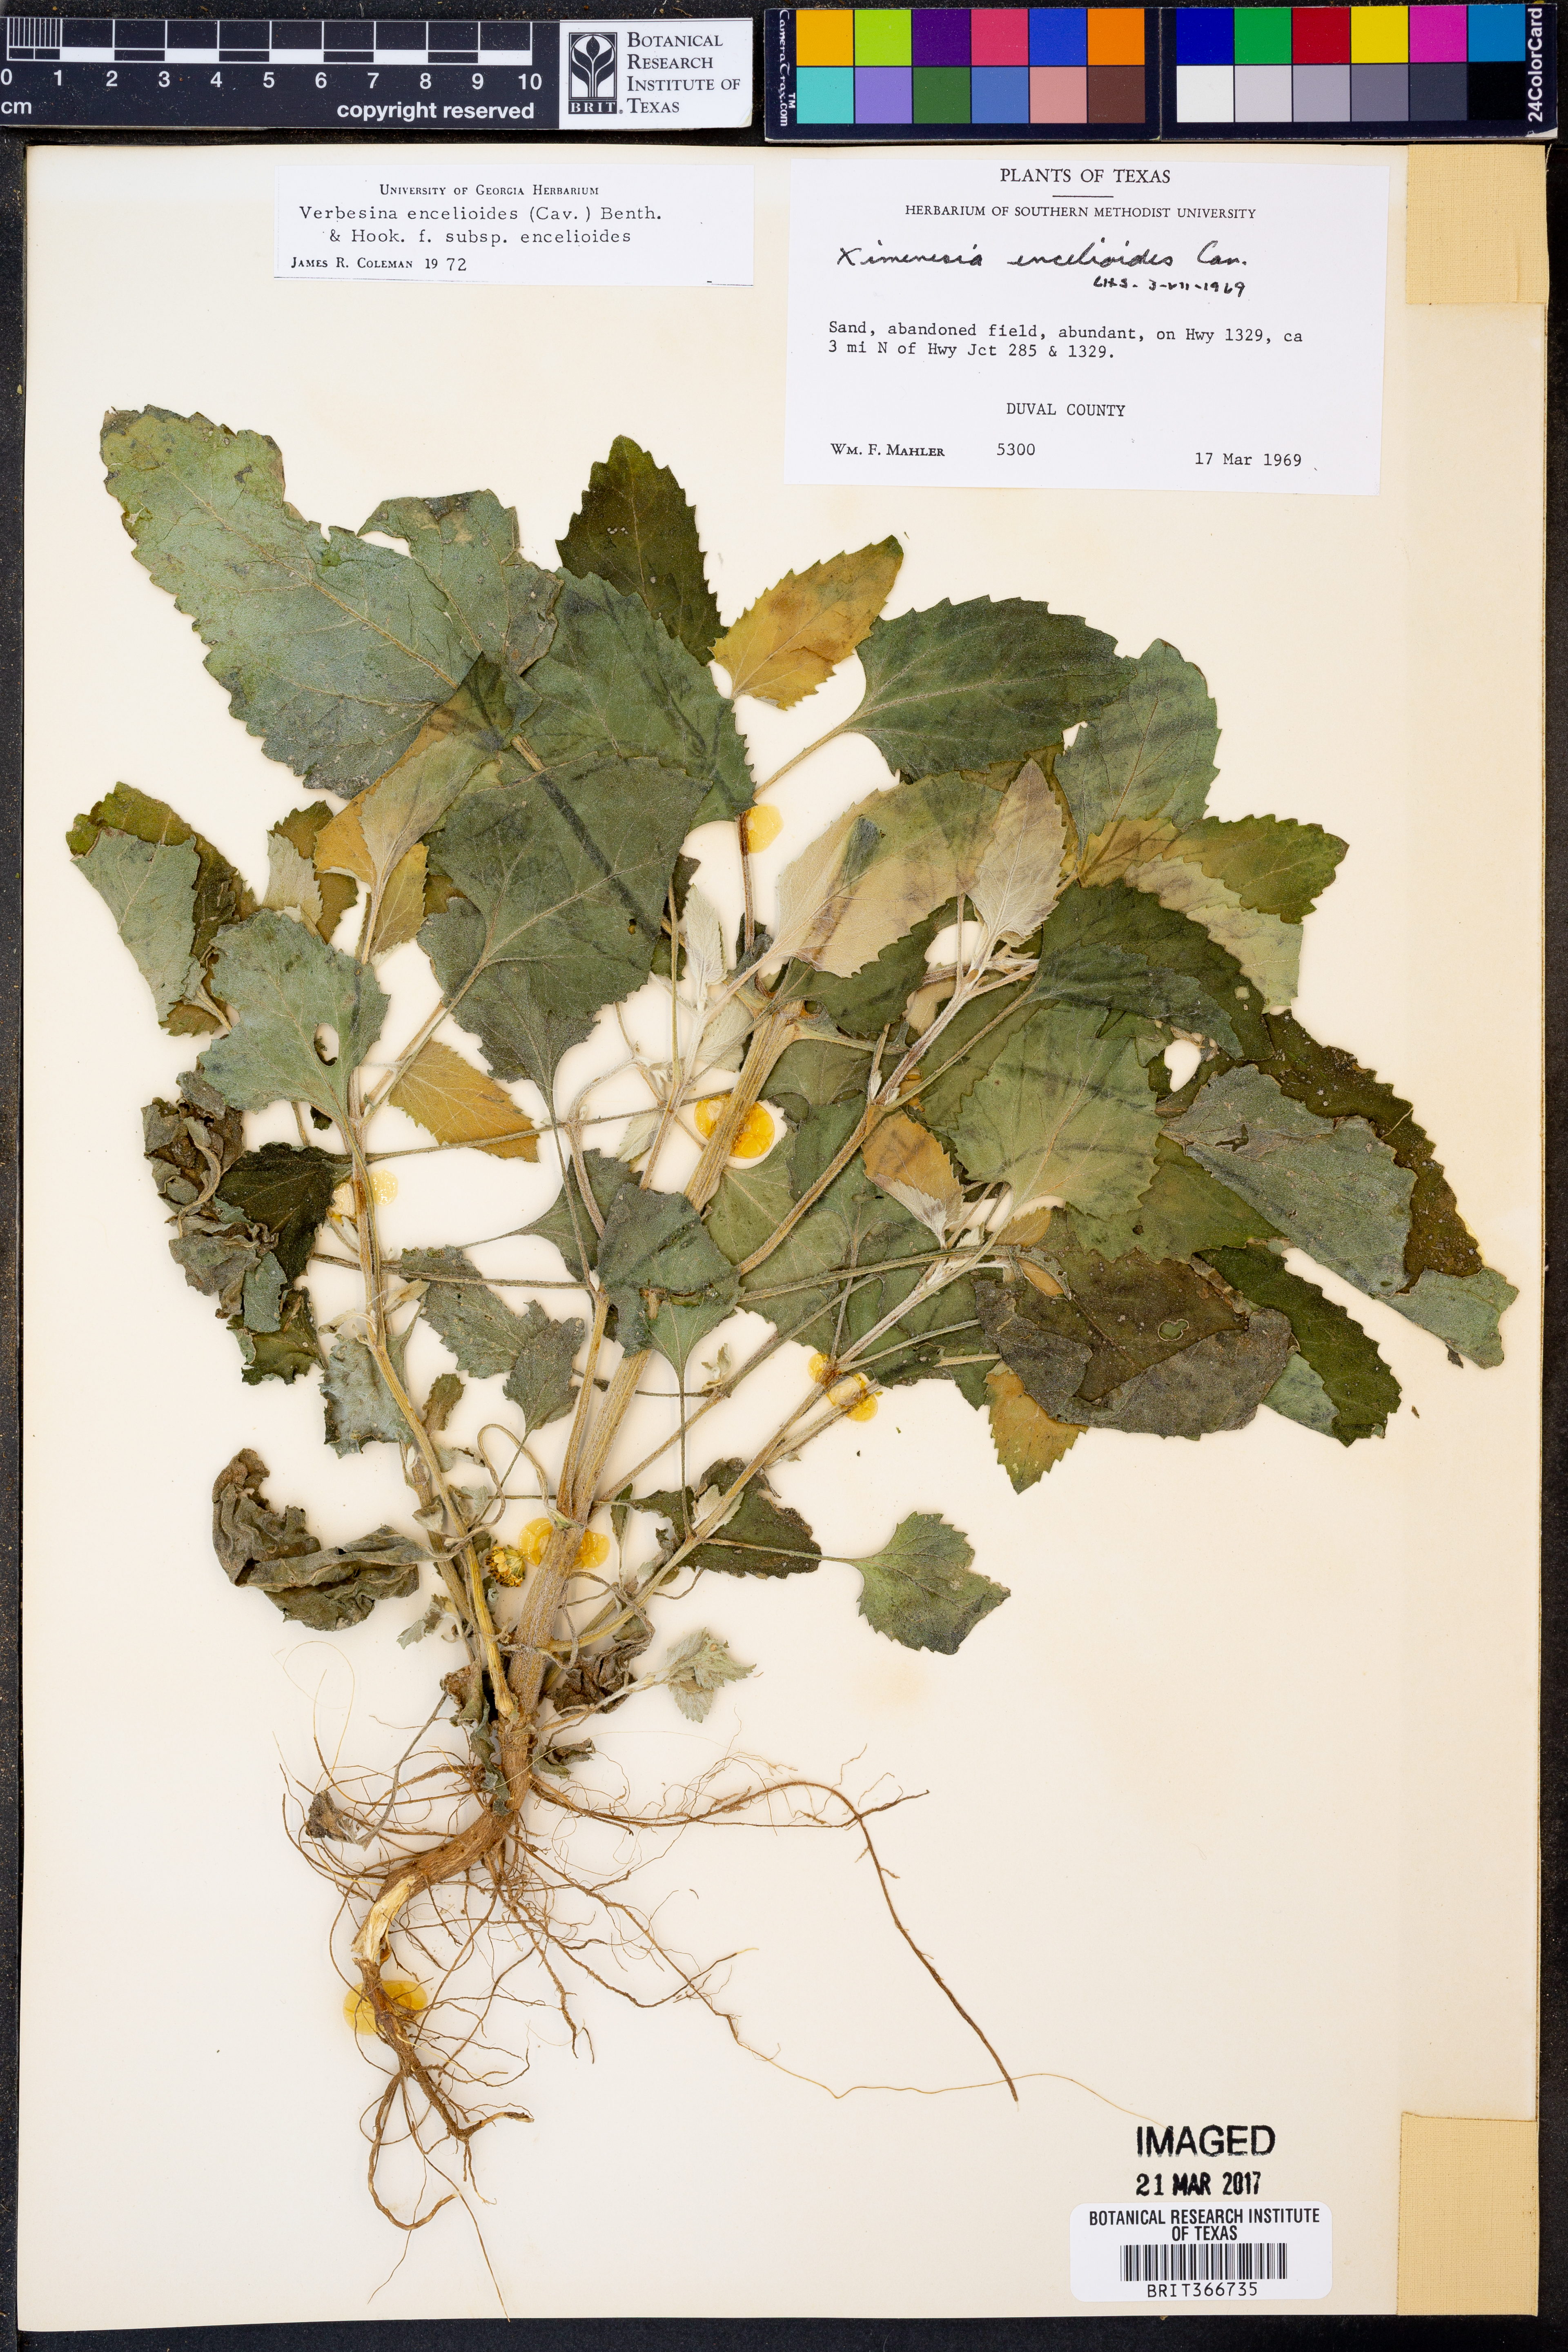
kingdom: Plantae
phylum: Tracheophyta
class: Magnoliopsida
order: Asterales
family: Asteraceae
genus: Verbesina
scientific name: Verbesina encelioides
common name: Golden crownbeard
